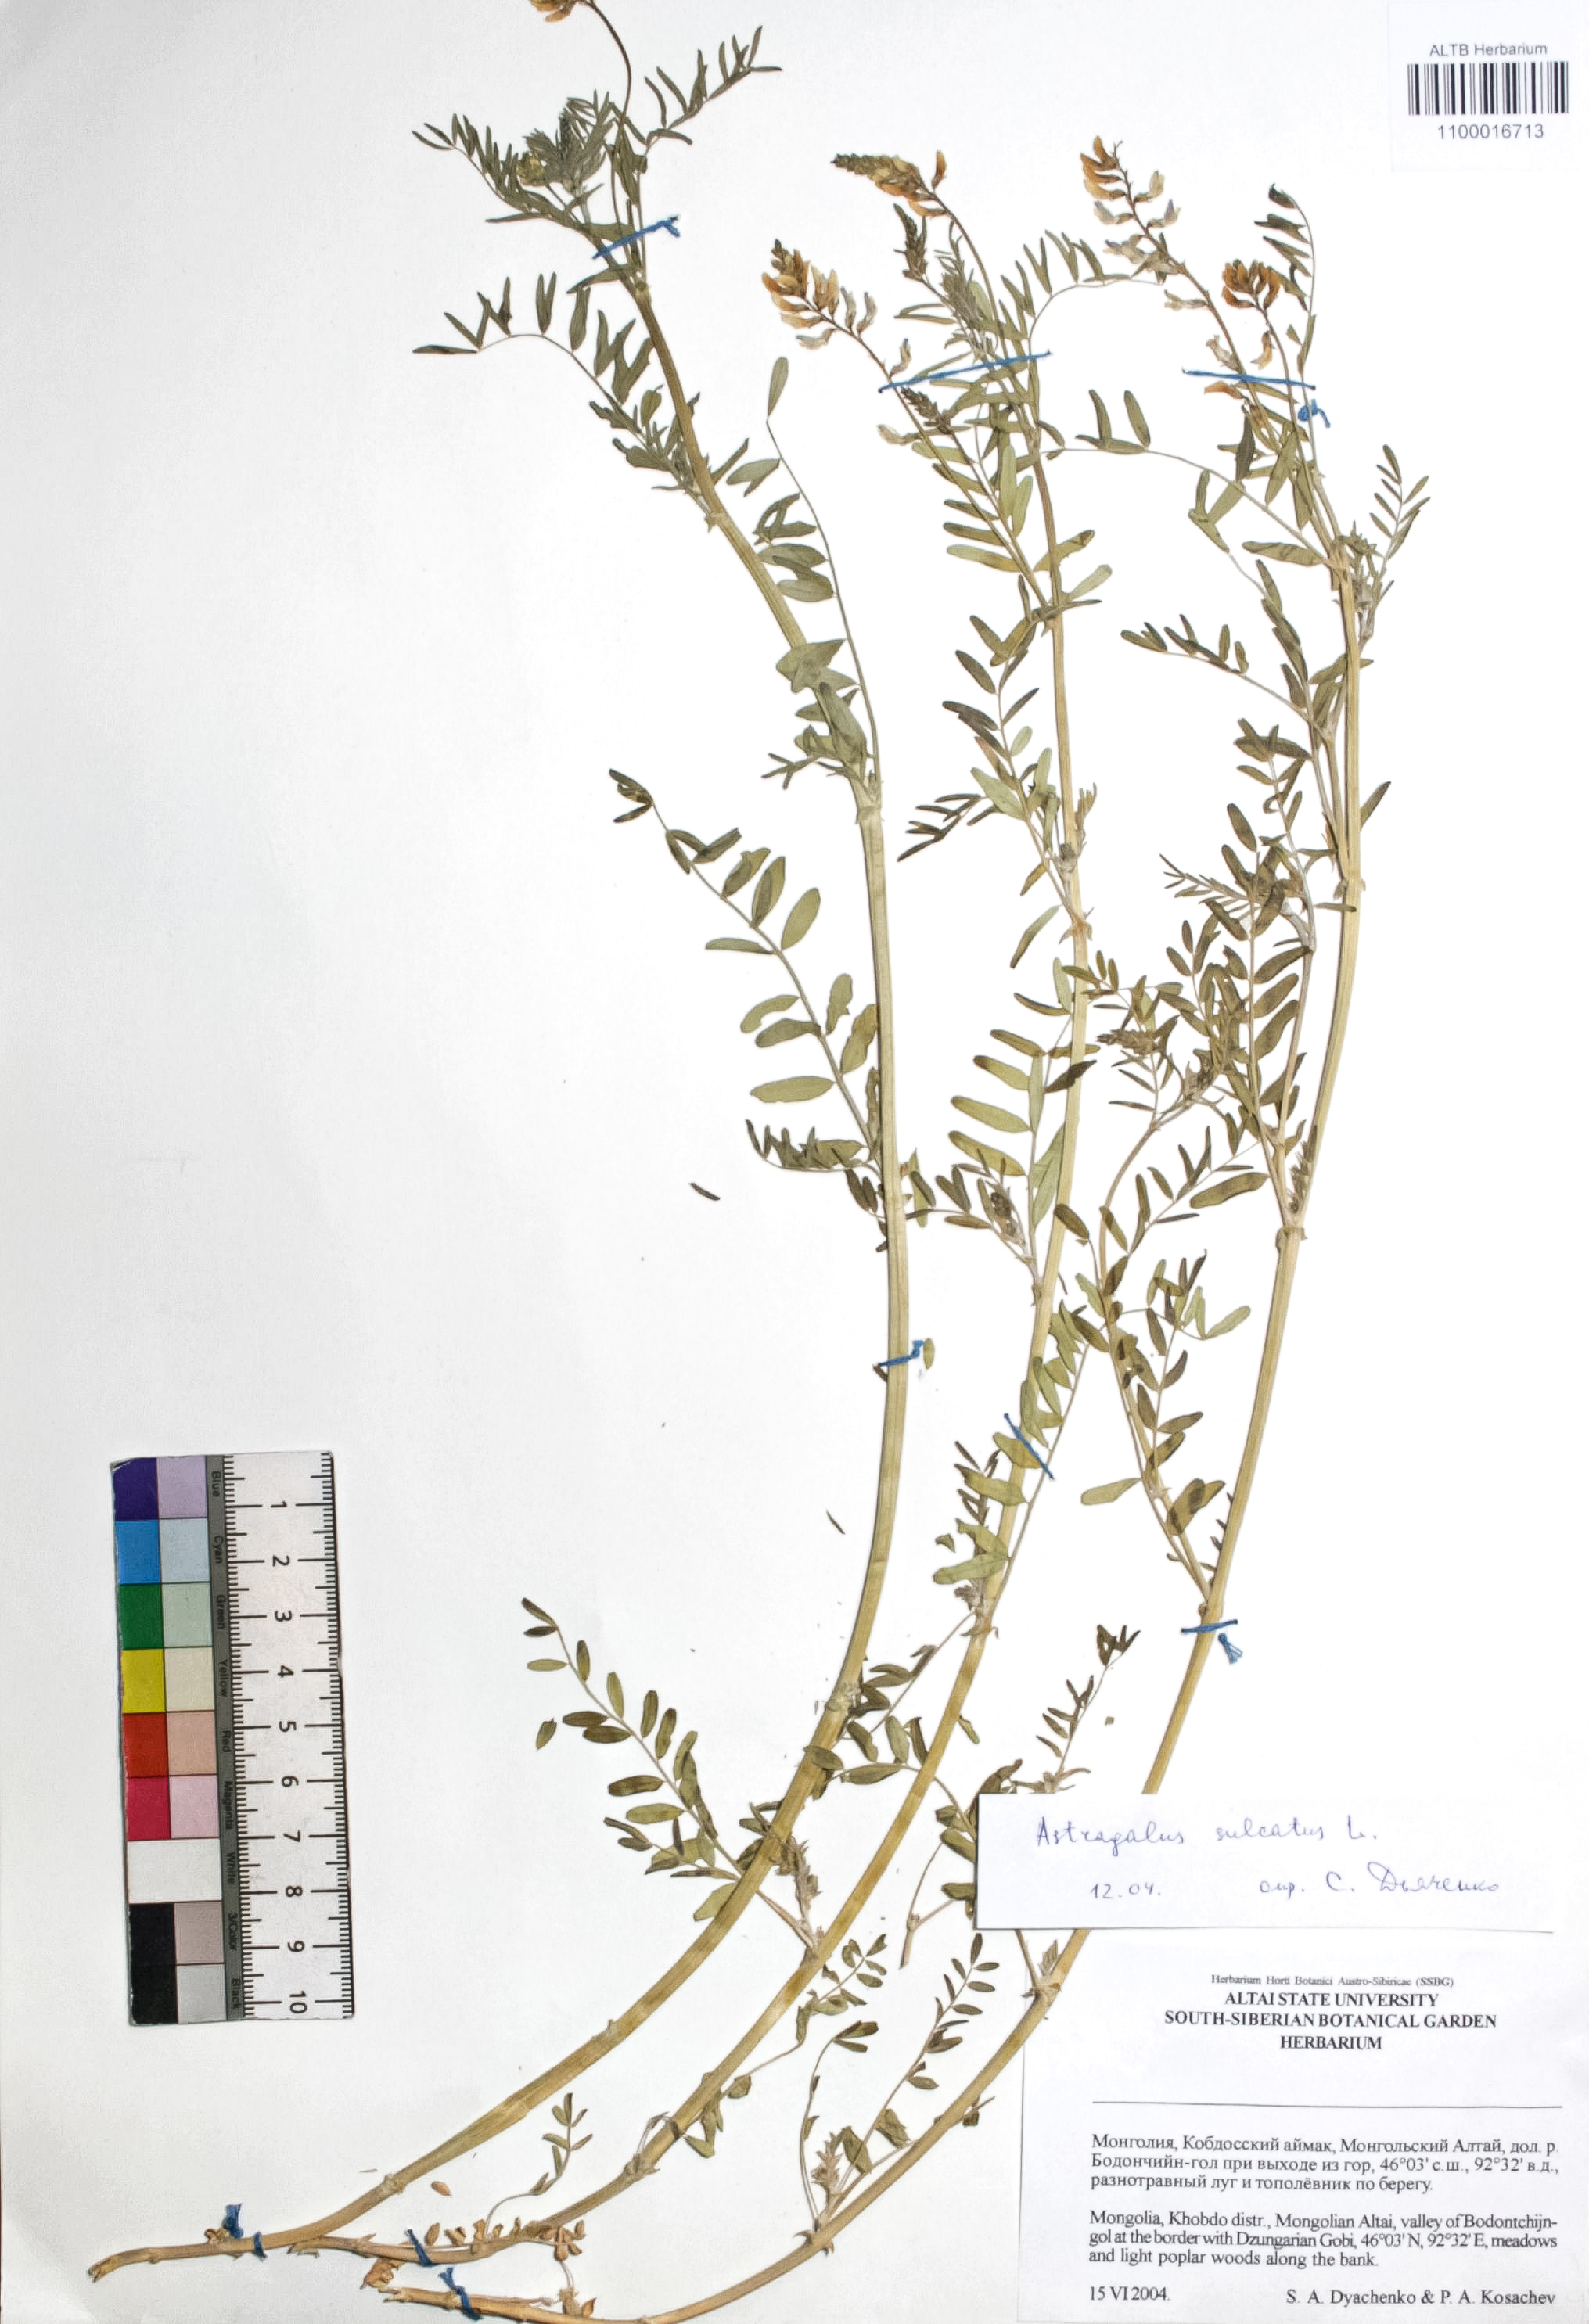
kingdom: Plantae
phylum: Tracheophyta
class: Magnoliopsida
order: Fabales
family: Fabaceae
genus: Astragalus
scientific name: Astragalus sulcatus
